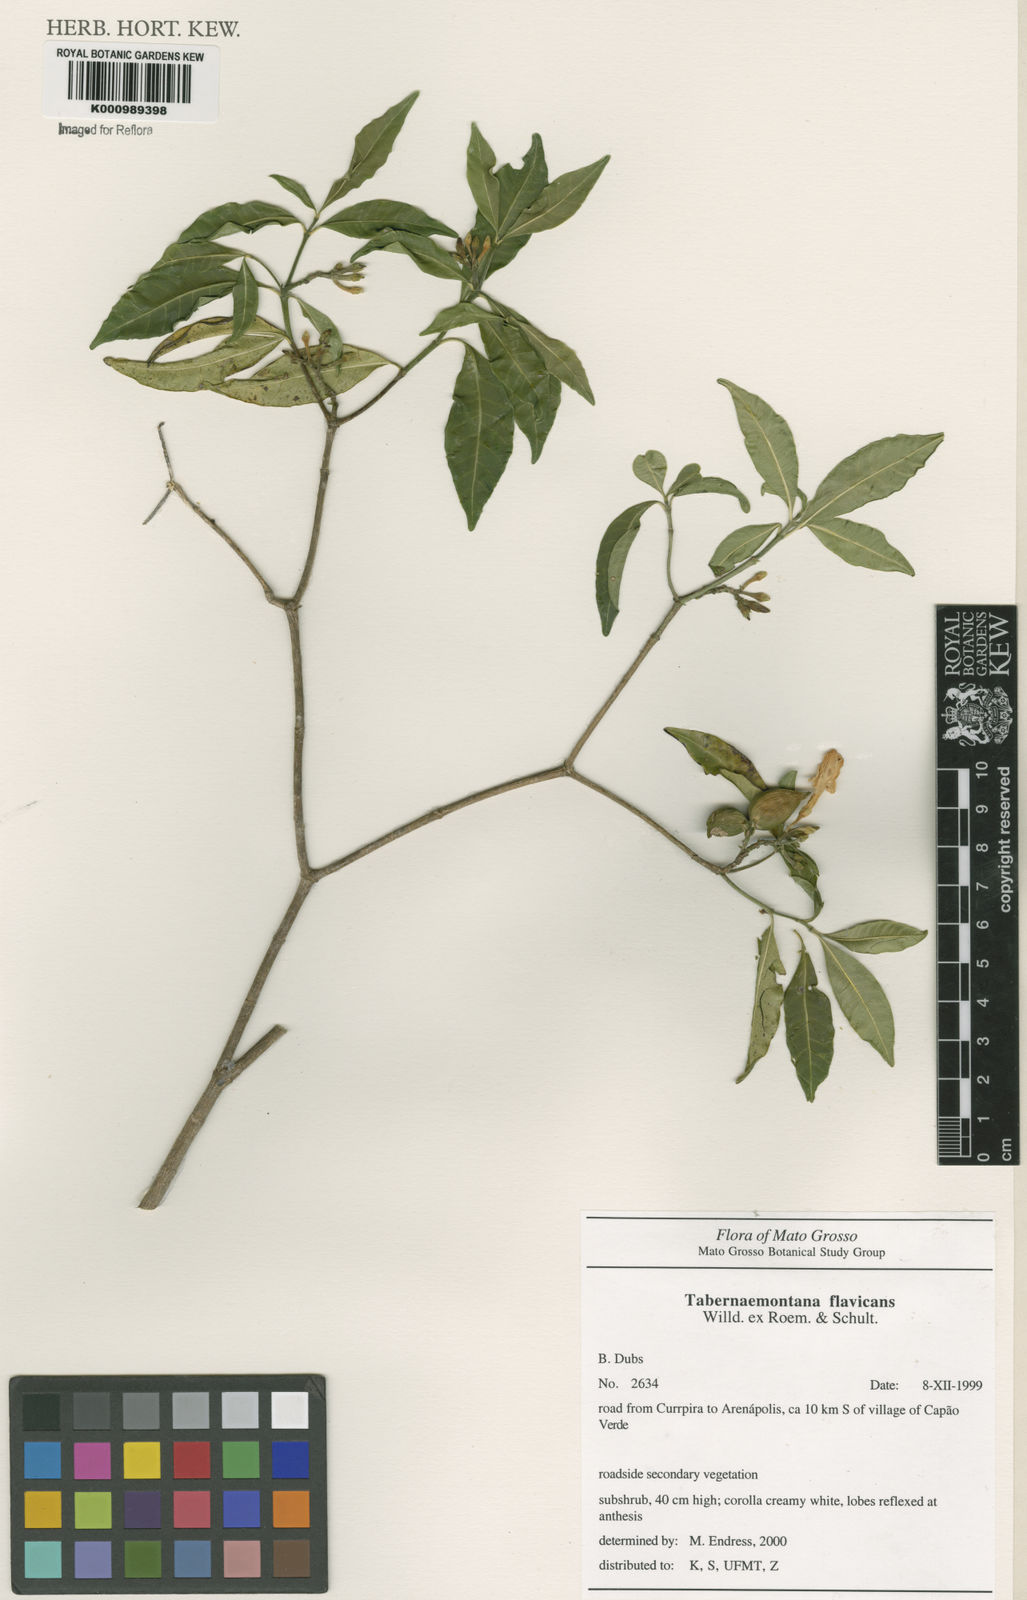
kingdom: Plantae
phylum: Tracheophyta
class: Magnoliopsida
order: Gentianales
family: Apocynaceae
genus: Tabernaemontana
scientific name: Tabernaemontana flavicans
